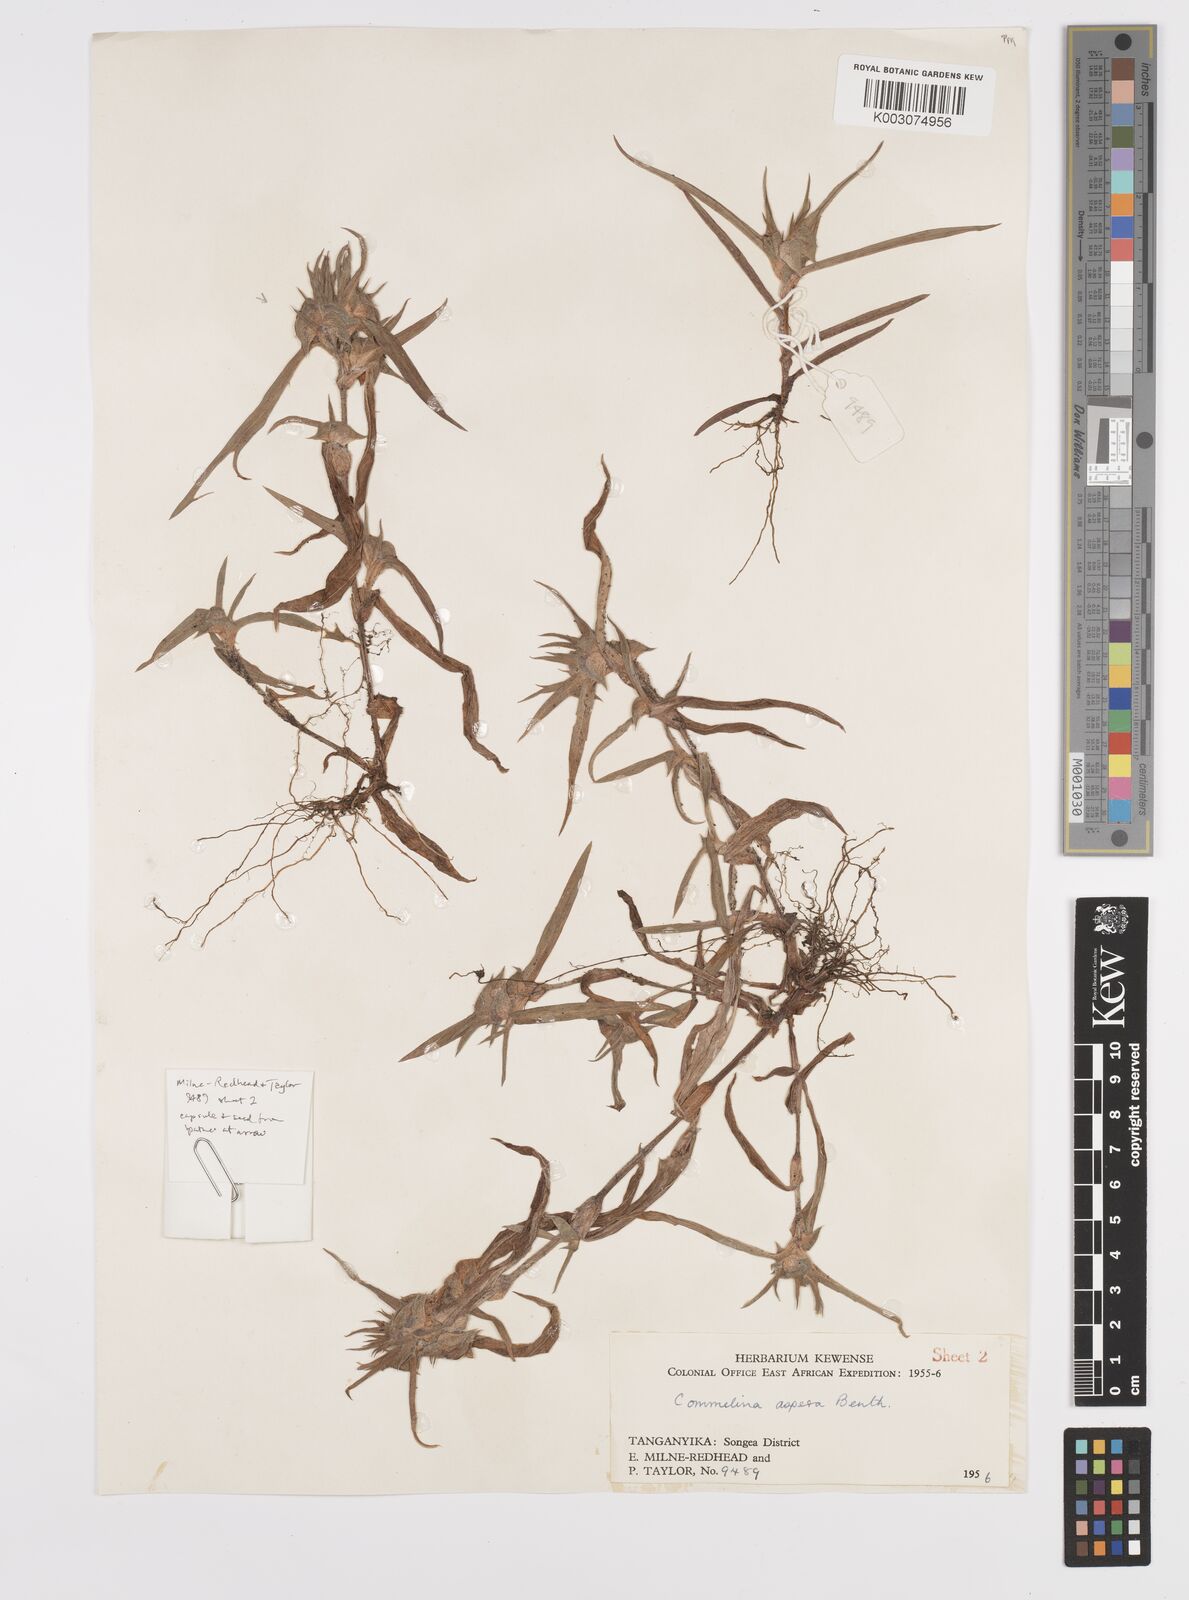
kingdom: Plantae
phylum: Tracheophyta
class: Liliopsida
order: Commelinales
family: Commelinaceae
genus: Commelina
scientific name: Commelina aspera
